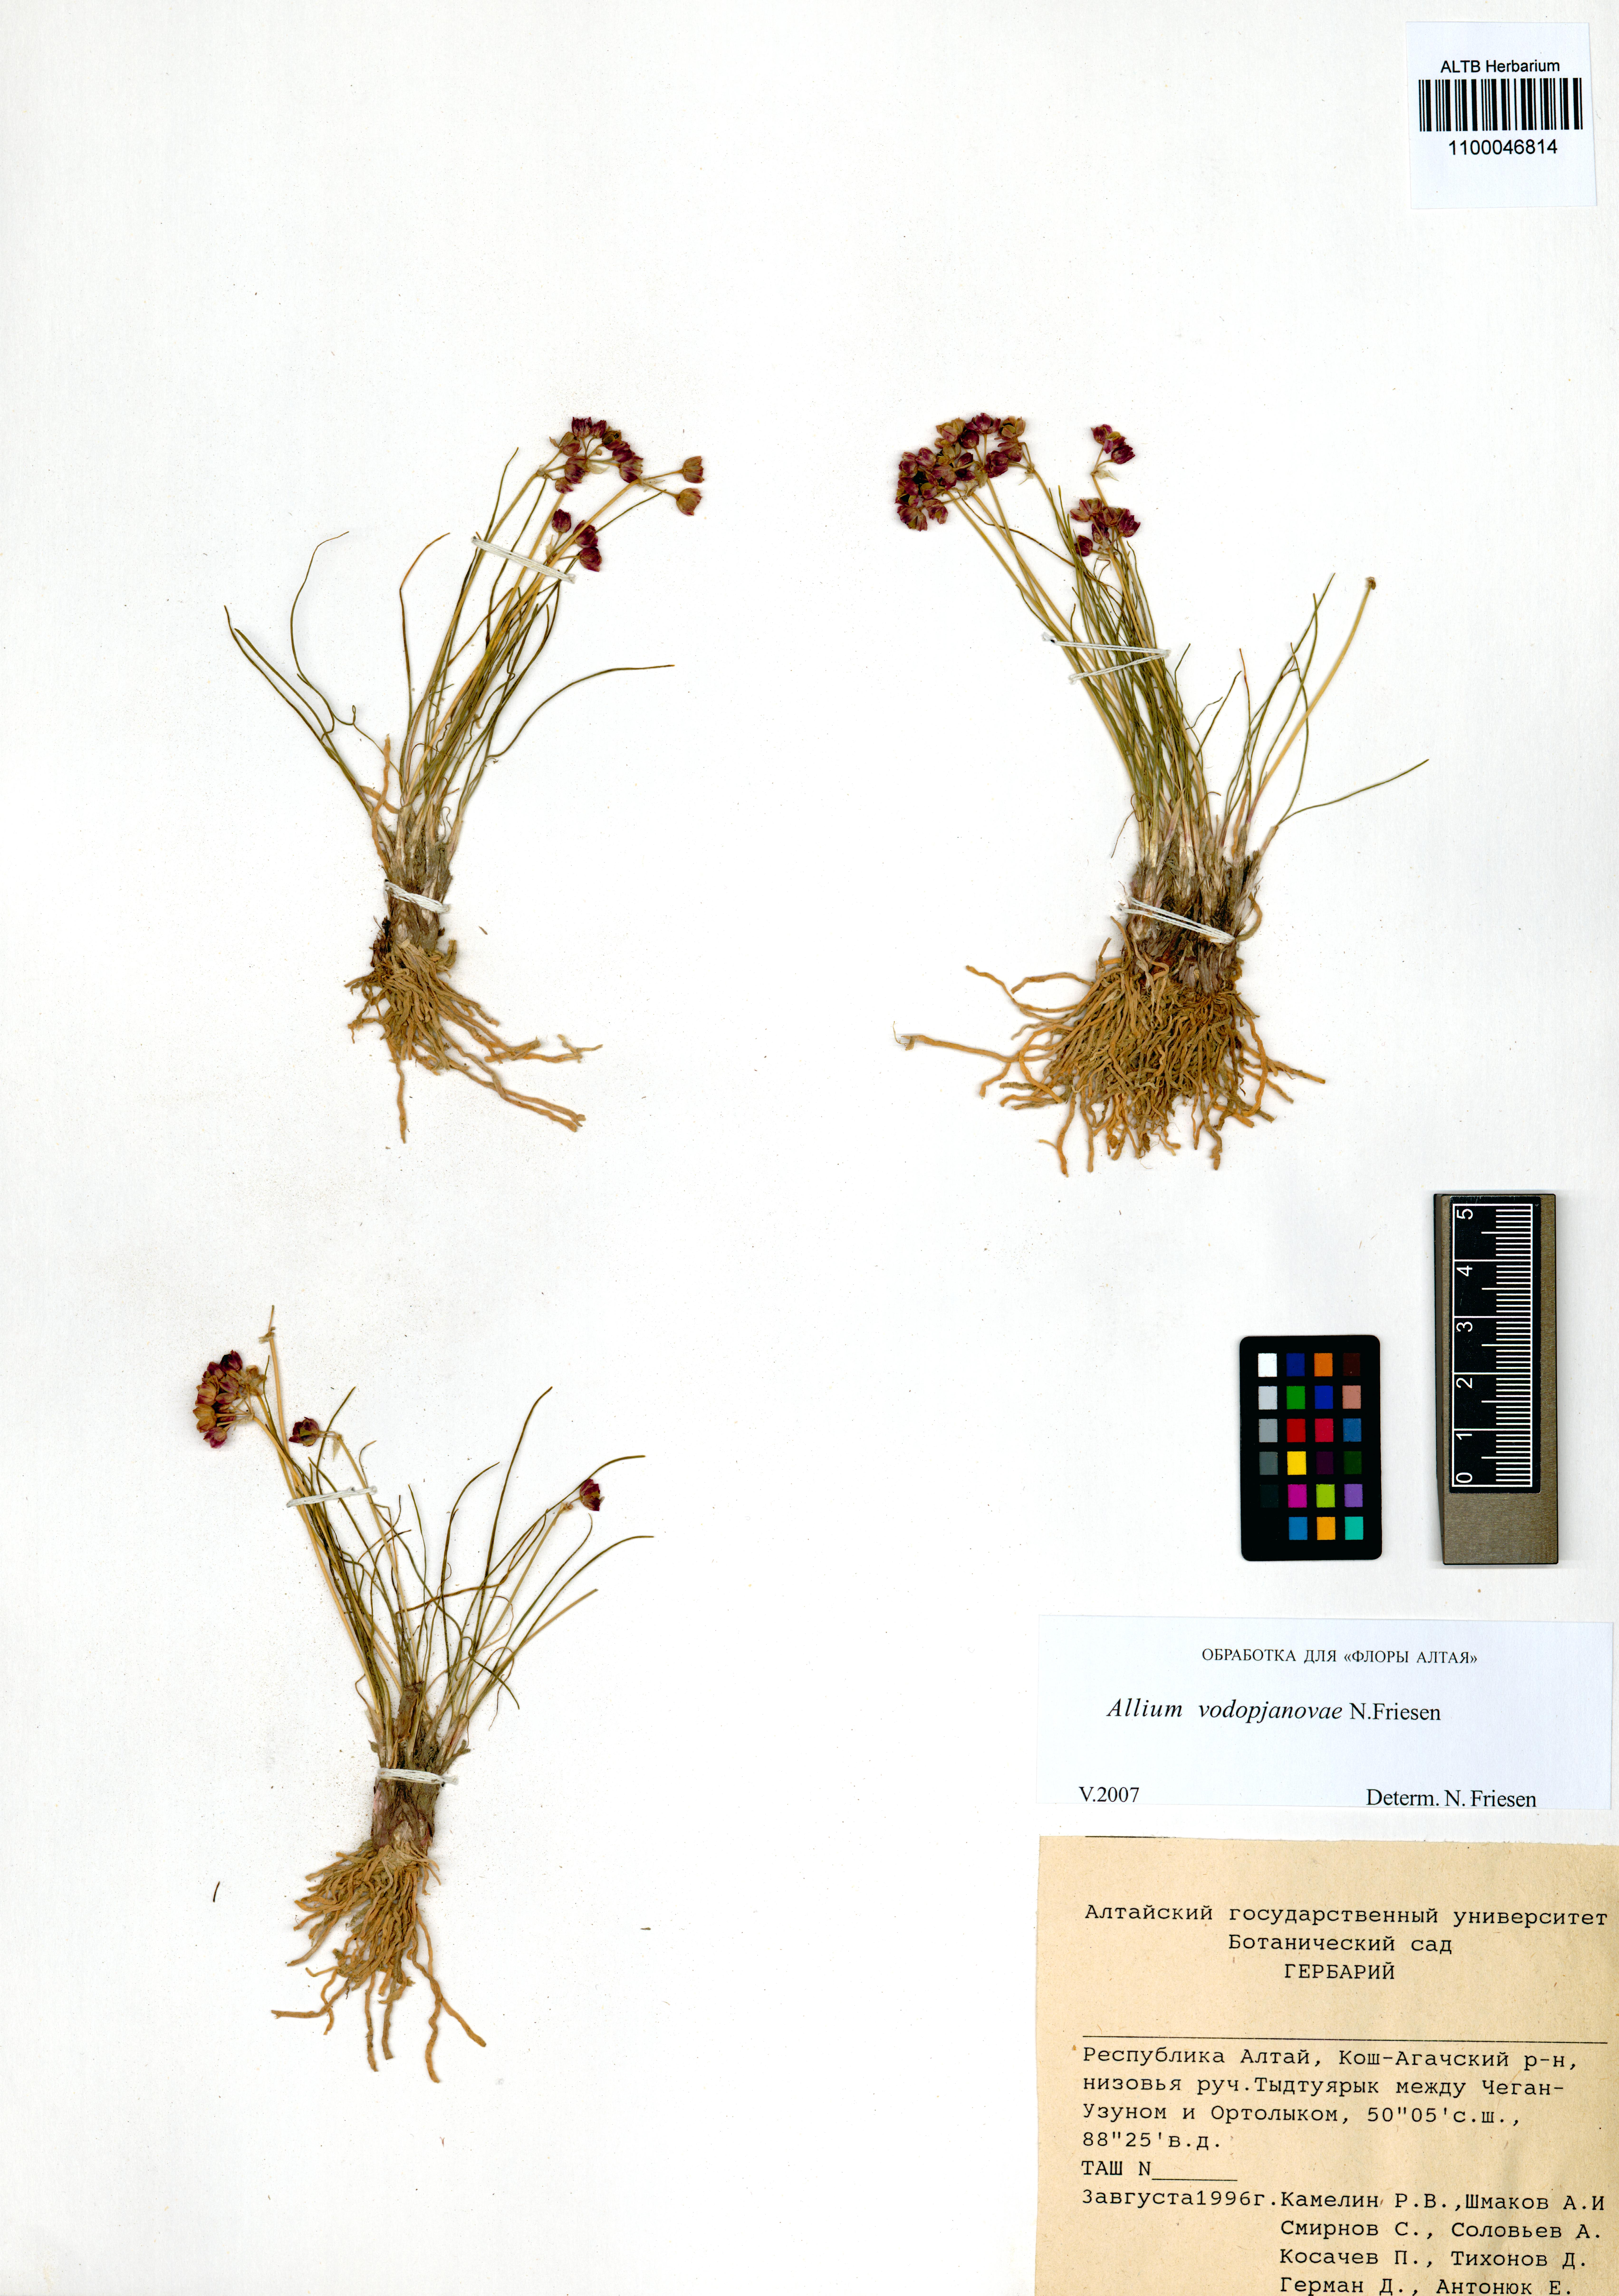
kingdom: Plantae
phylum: Tracheophyta
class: Liliopsida
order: Asparagales
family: Amaryllidaceae
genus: Allium
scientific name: Allium vodopjanovae
